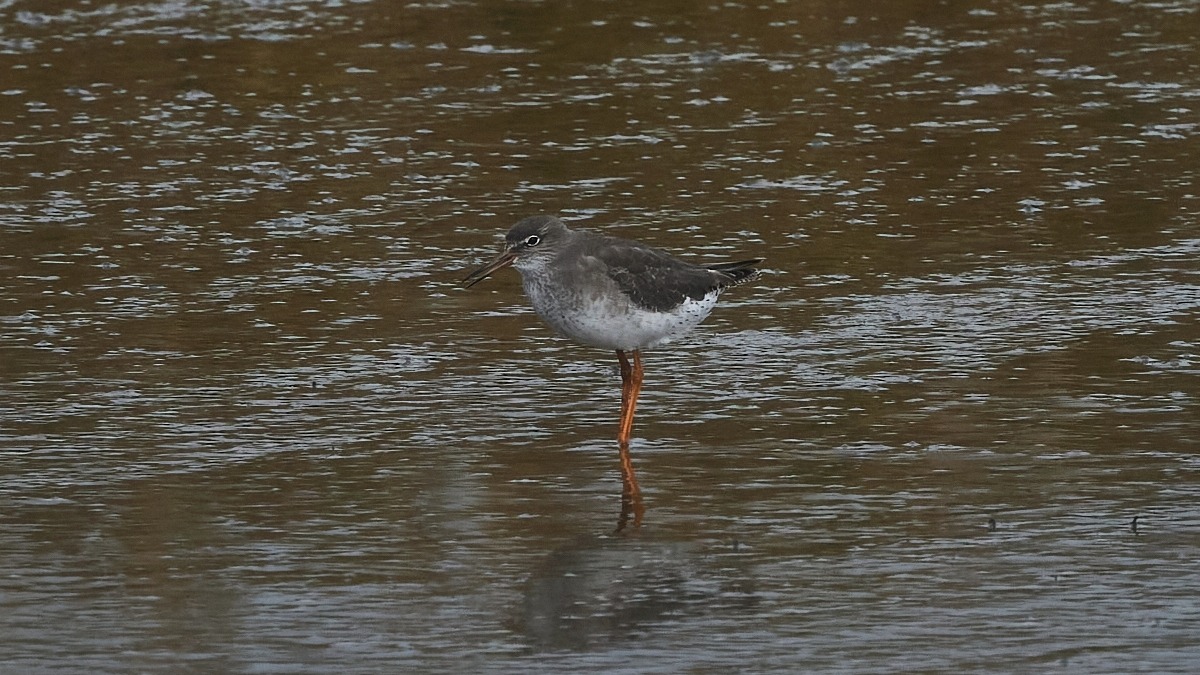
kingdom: Animalia
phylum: Chordata
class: Aves
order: Charadriiformes
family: Scolopacidae
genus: Tringa
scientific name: Tringa totanus
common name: Rødben
